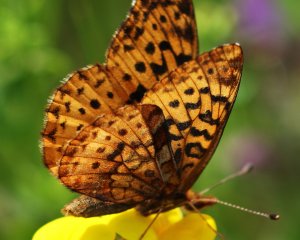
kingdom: Animalia
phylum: Arthropoda
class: Insecta
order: Lepidoptera
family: Nymphalidae
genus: Clossiana
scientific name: Clossiana toddi
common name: Meadow Fritillary
